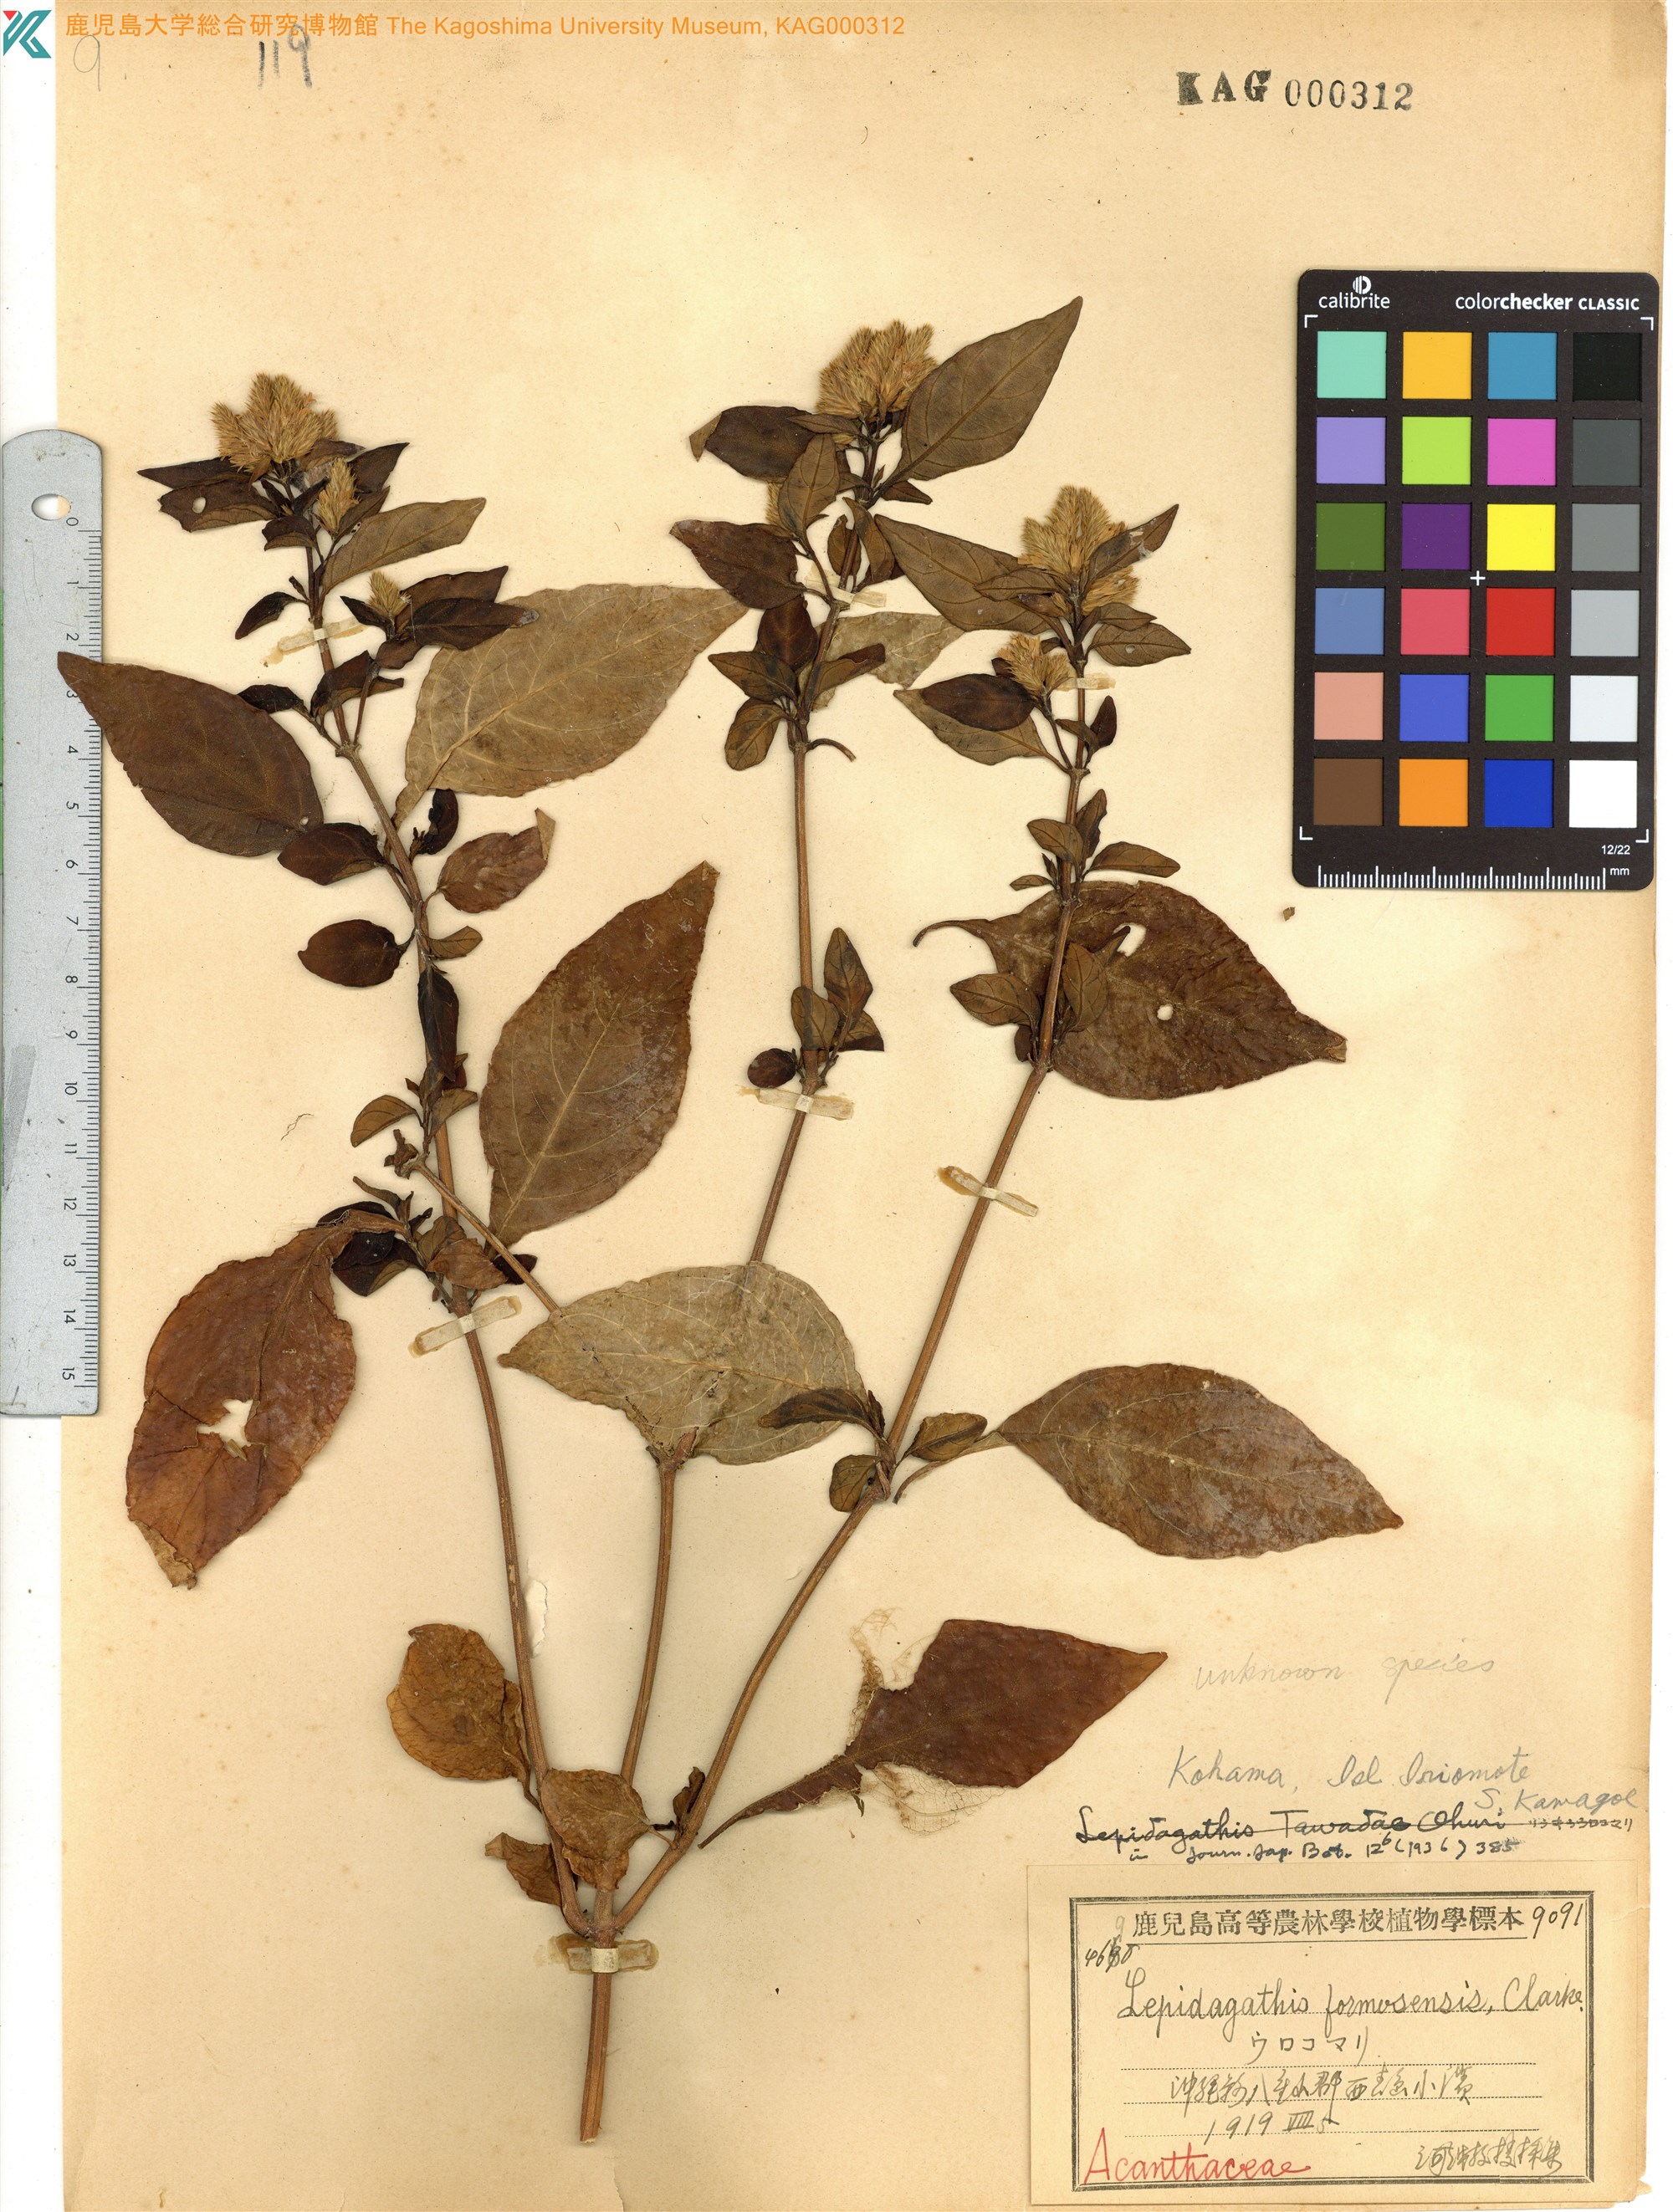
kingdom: Plantae
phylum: Tracheophyta
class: Magnoliopsida
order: Lamiales
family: Acanthaceae
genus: Lepidagathis
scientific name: Lepidagathis formosensis
